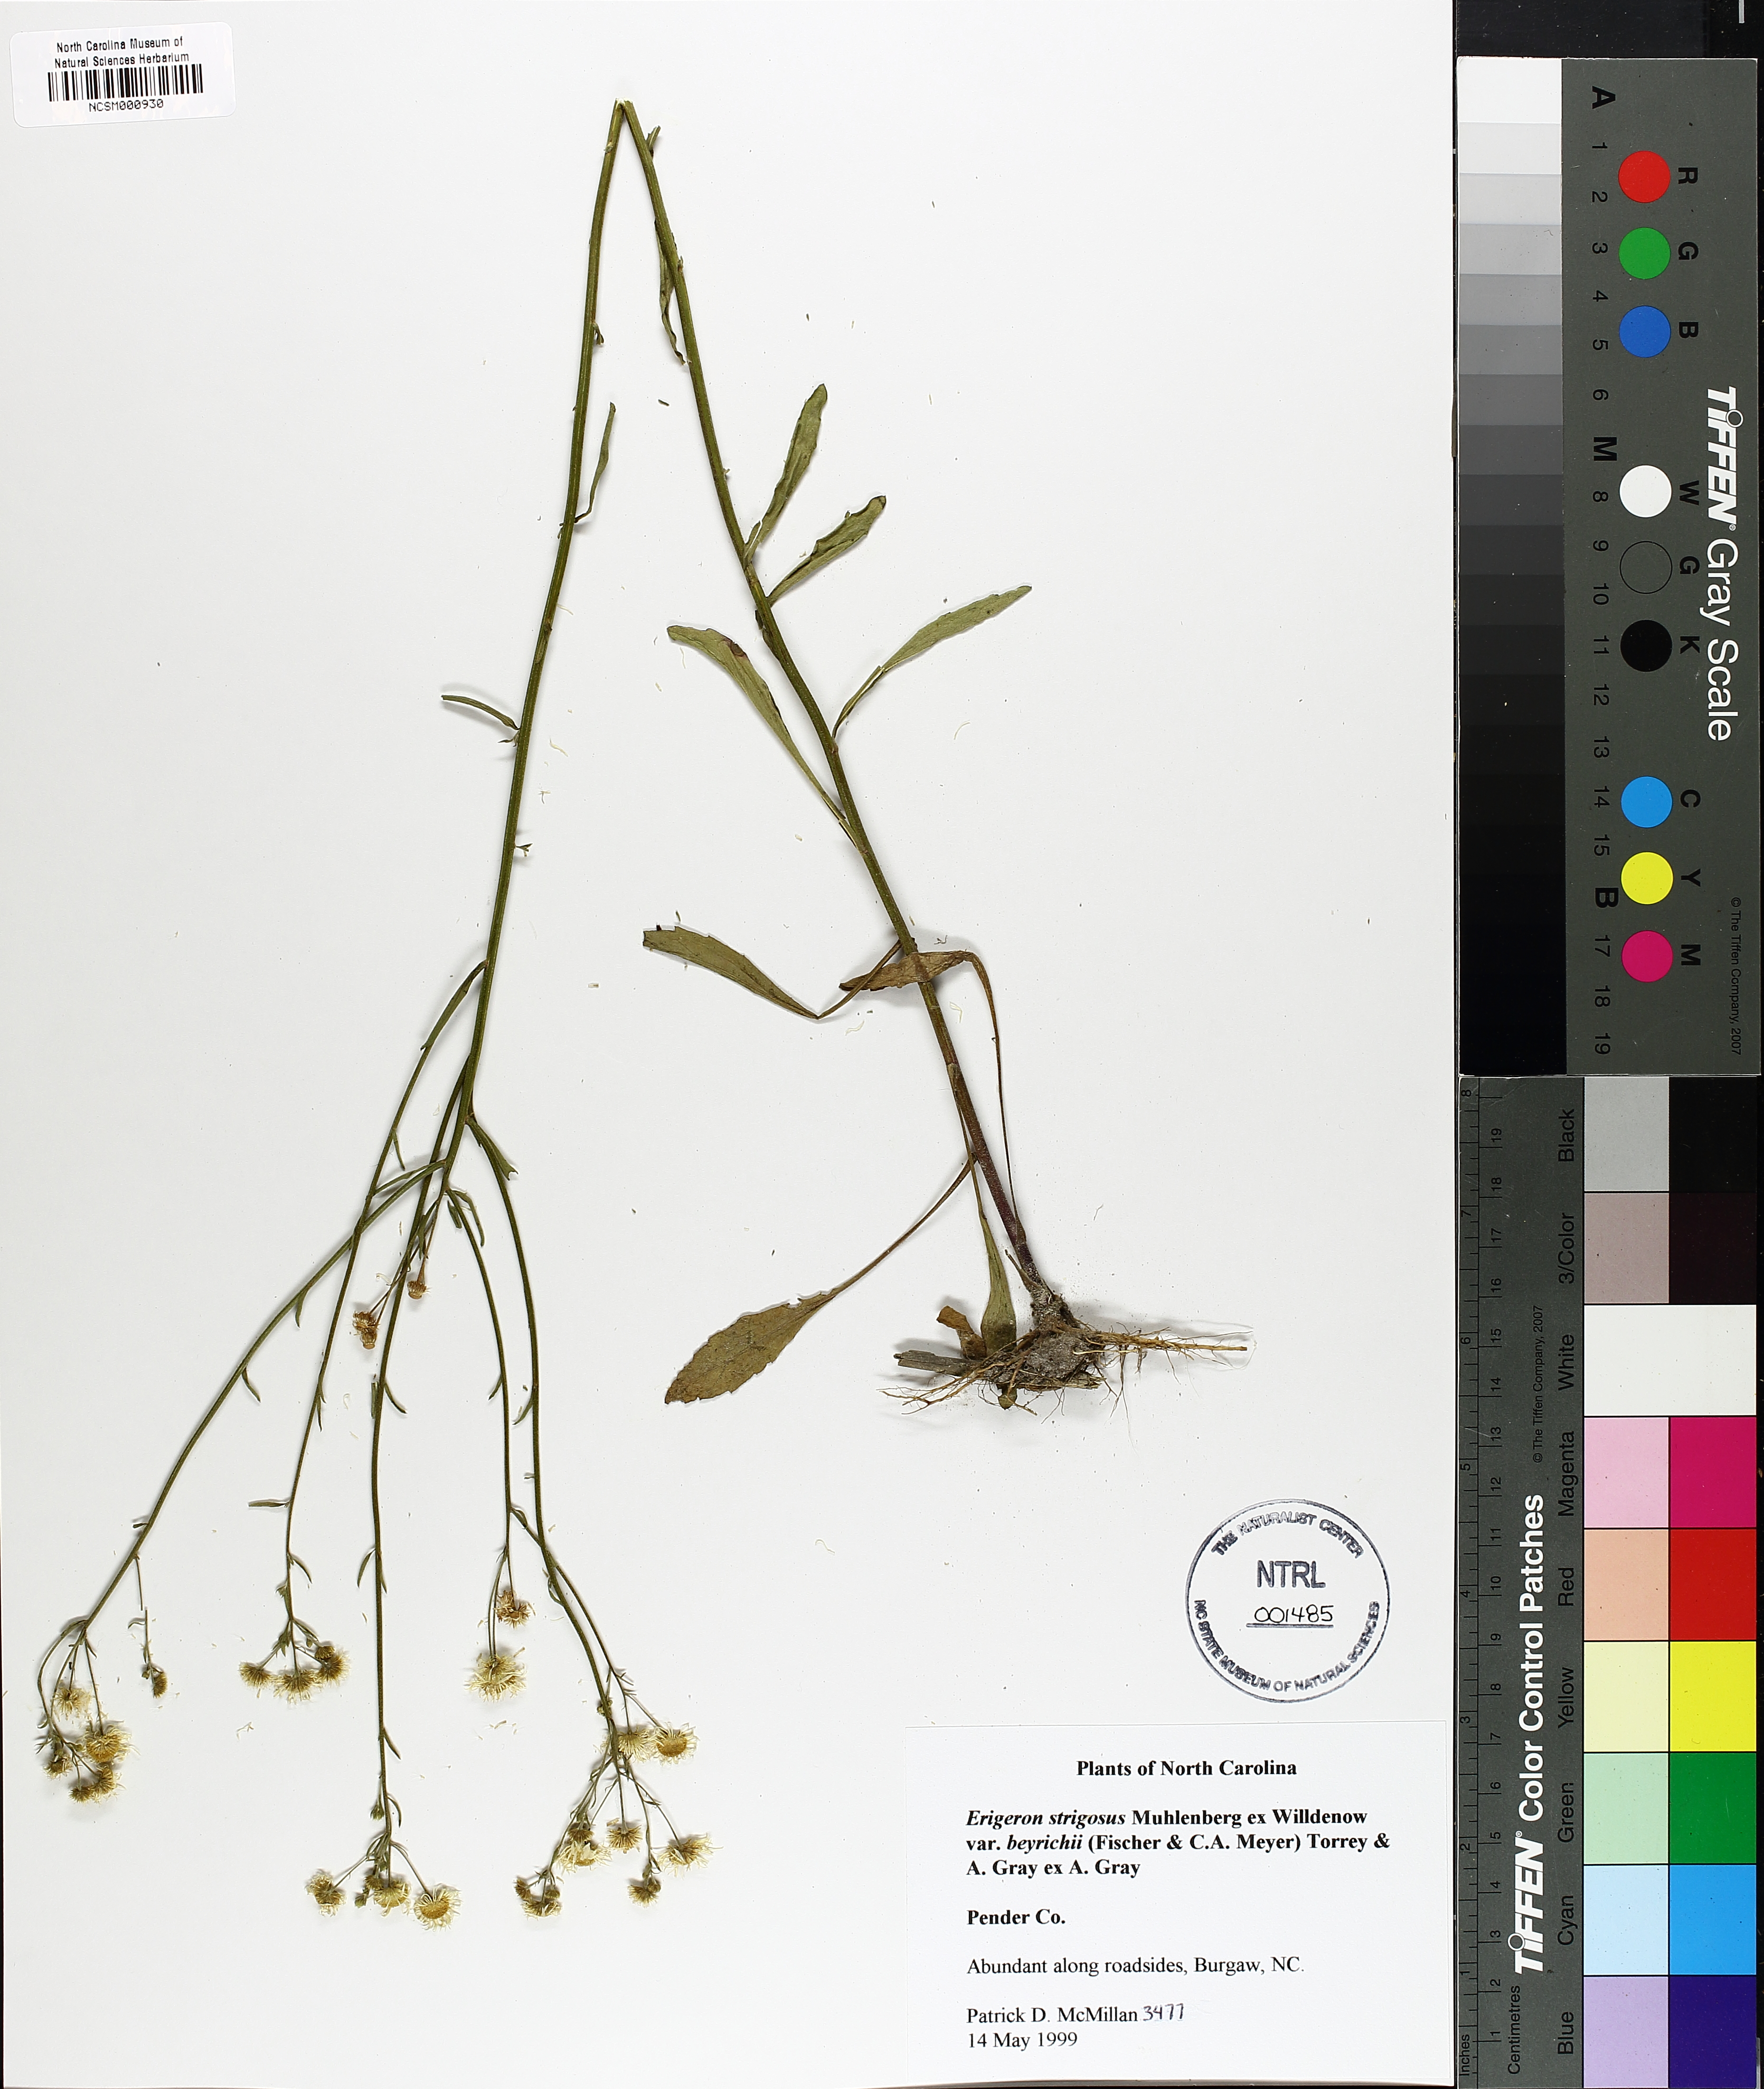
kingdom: Plantae
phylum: Tracheophyta
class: Magnoliopsida
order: Asterales
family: Asteraceae
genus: Erigeron
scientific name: Erigeron strigosus
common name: Common eastern fleabane
